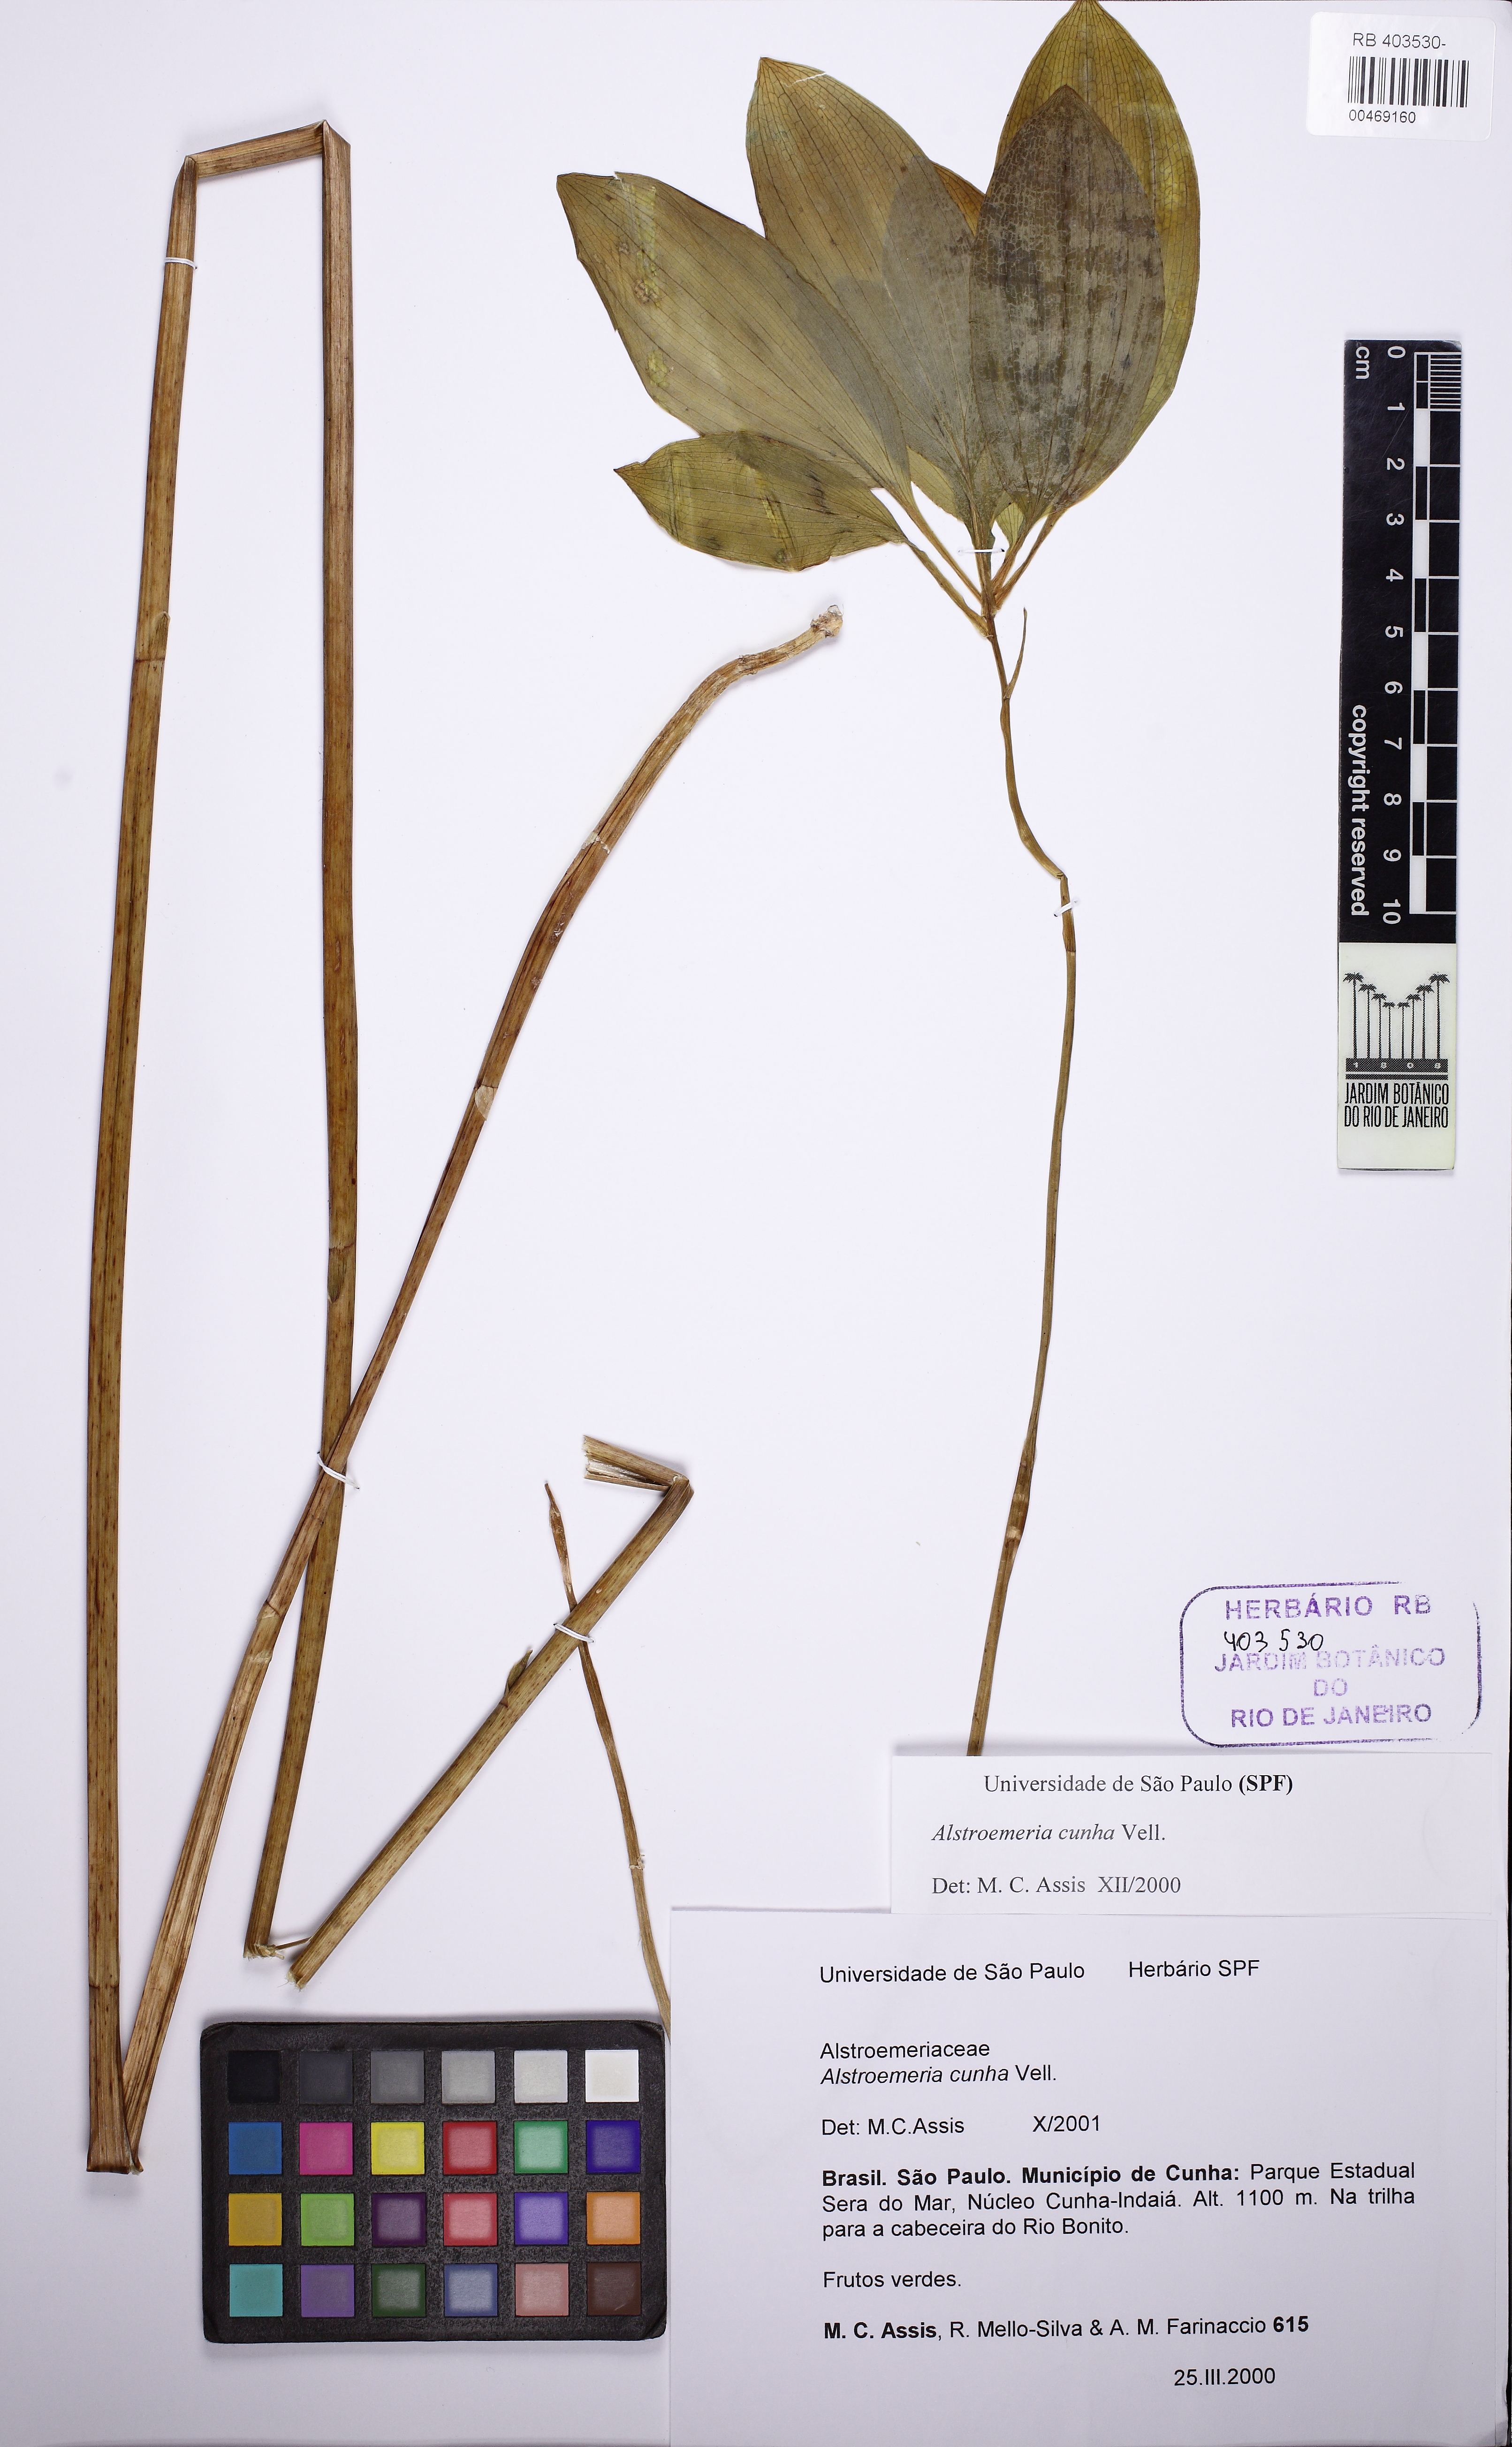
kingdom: Plantae
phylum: Tracheophyta
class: Liliopsida
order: Liliales
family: Alstroemeriaceae
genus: Alstroemeria
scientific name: Alstroemeria cunha
